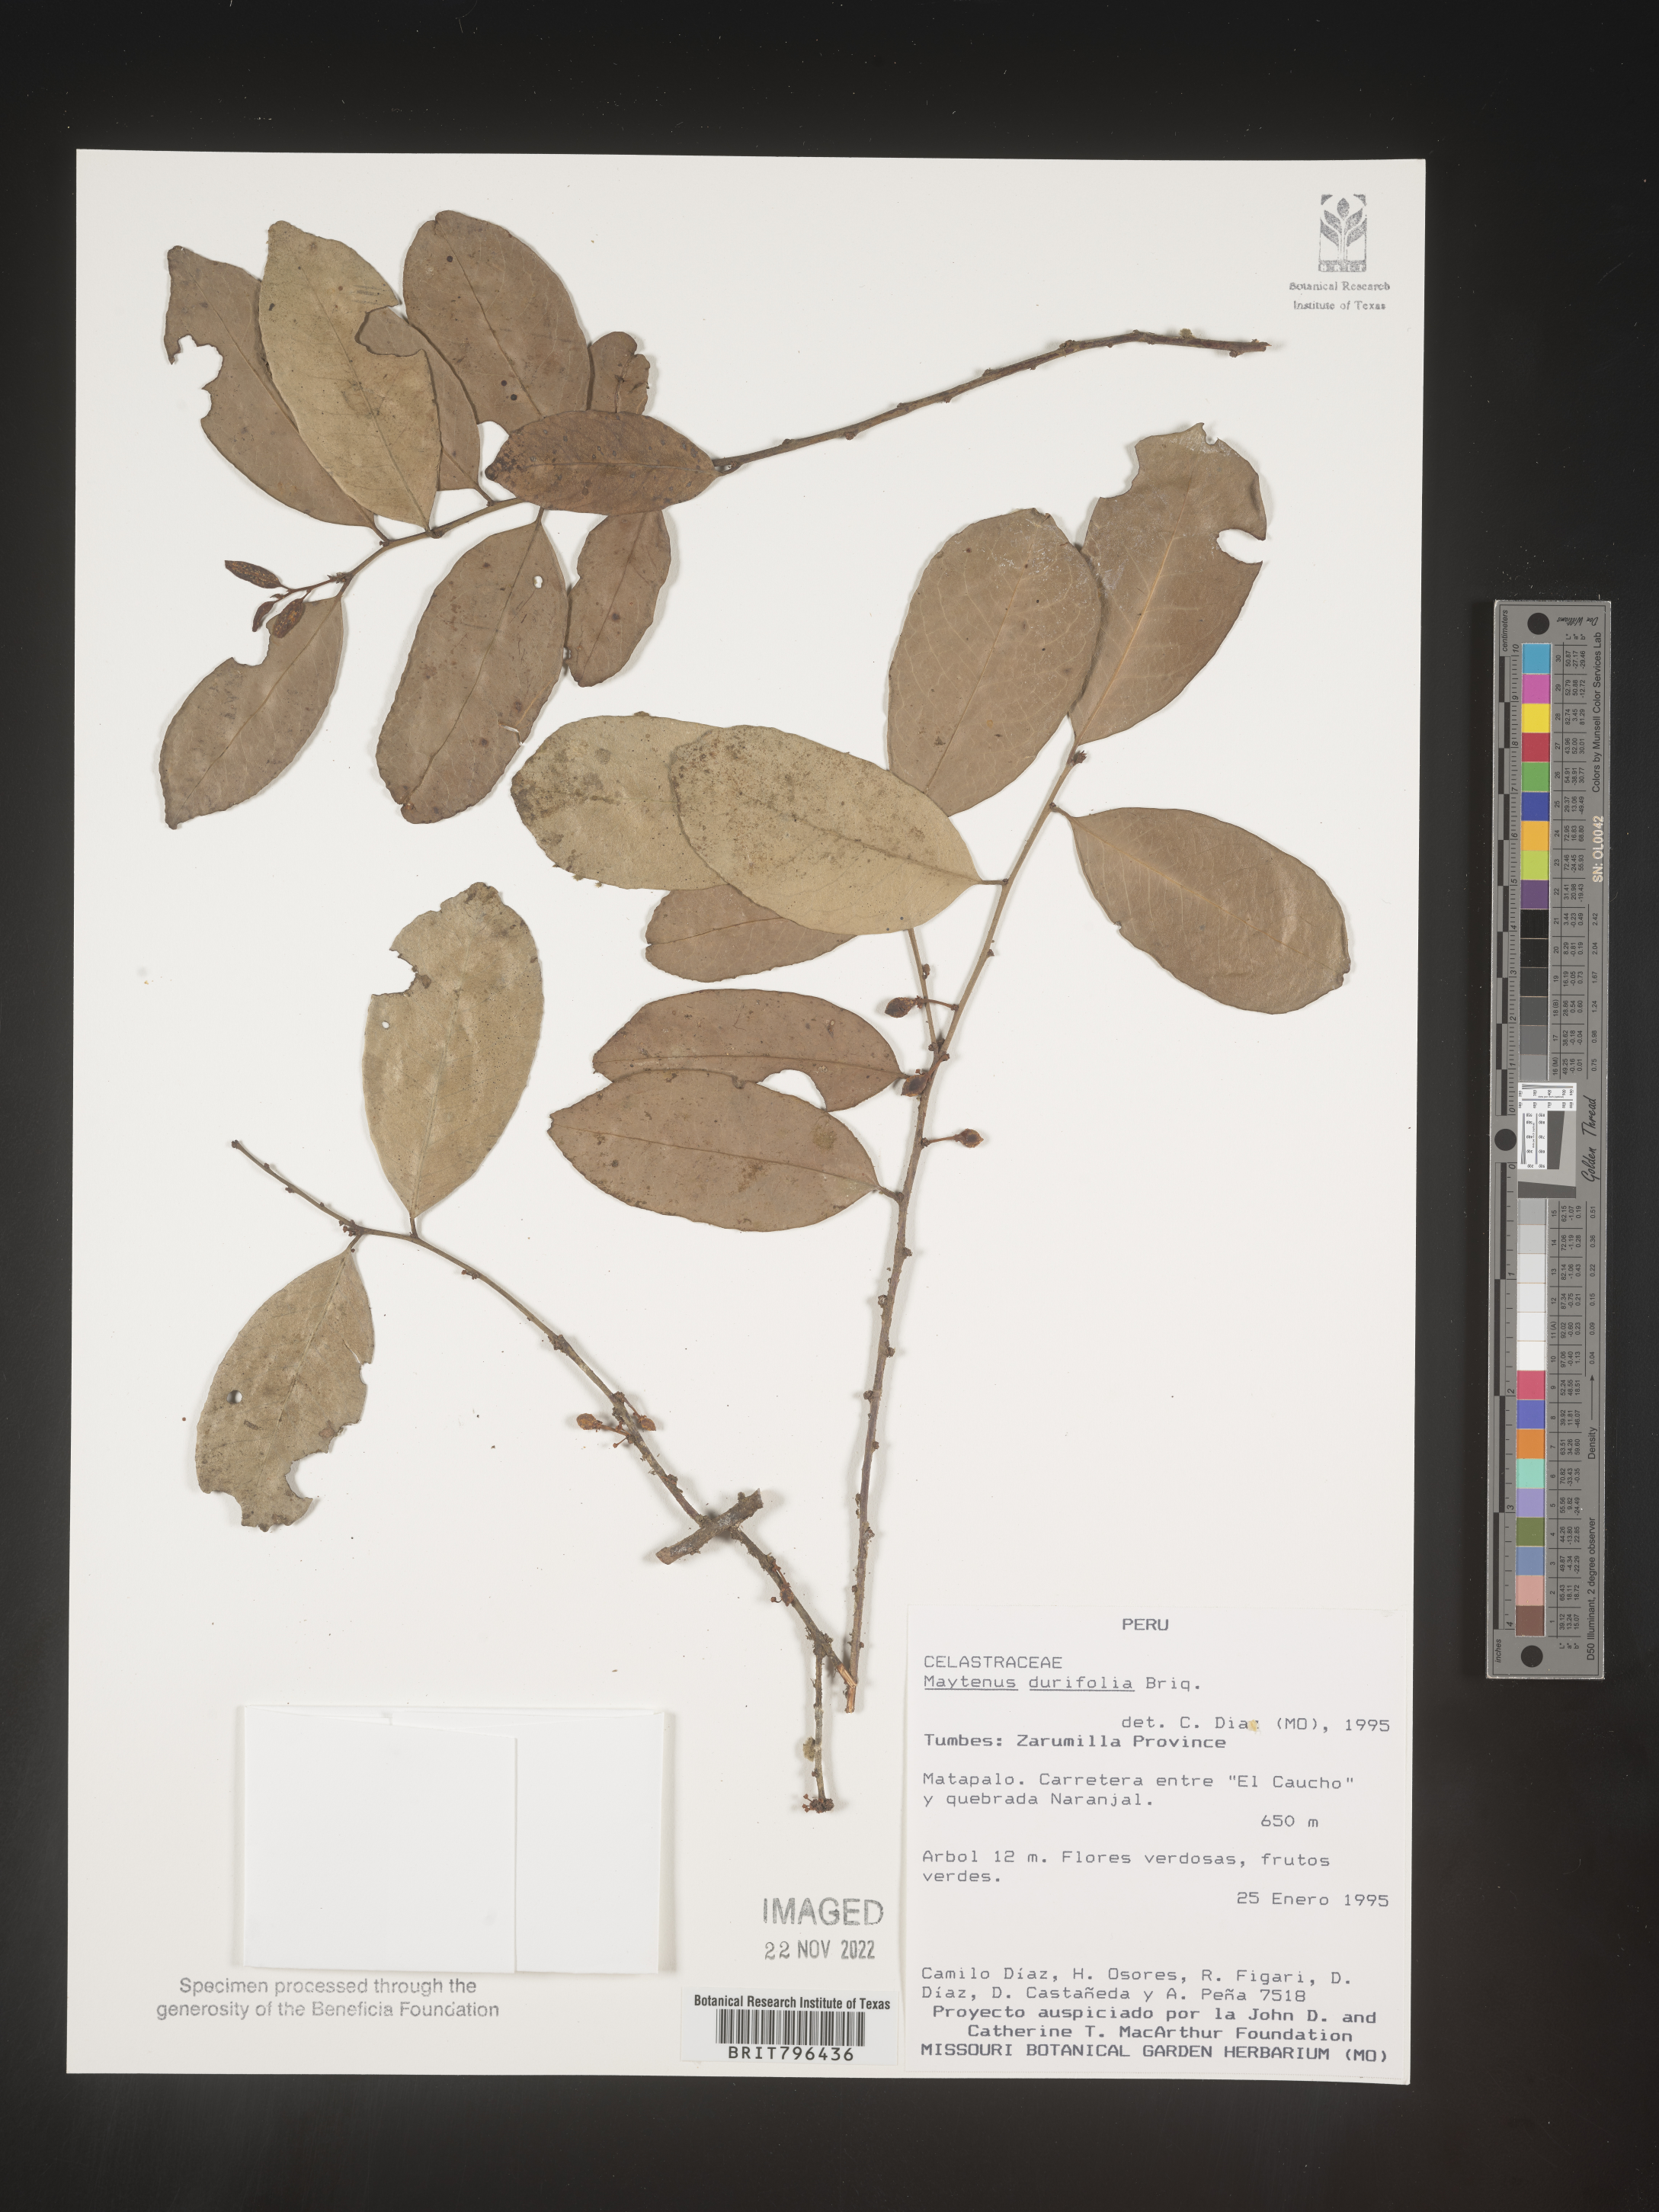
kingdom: Plantae
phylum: Tracheophyta
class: Magnoliopsida
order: Celastrales
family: Celastraceae
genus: Maytenus
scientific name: Maytenus
